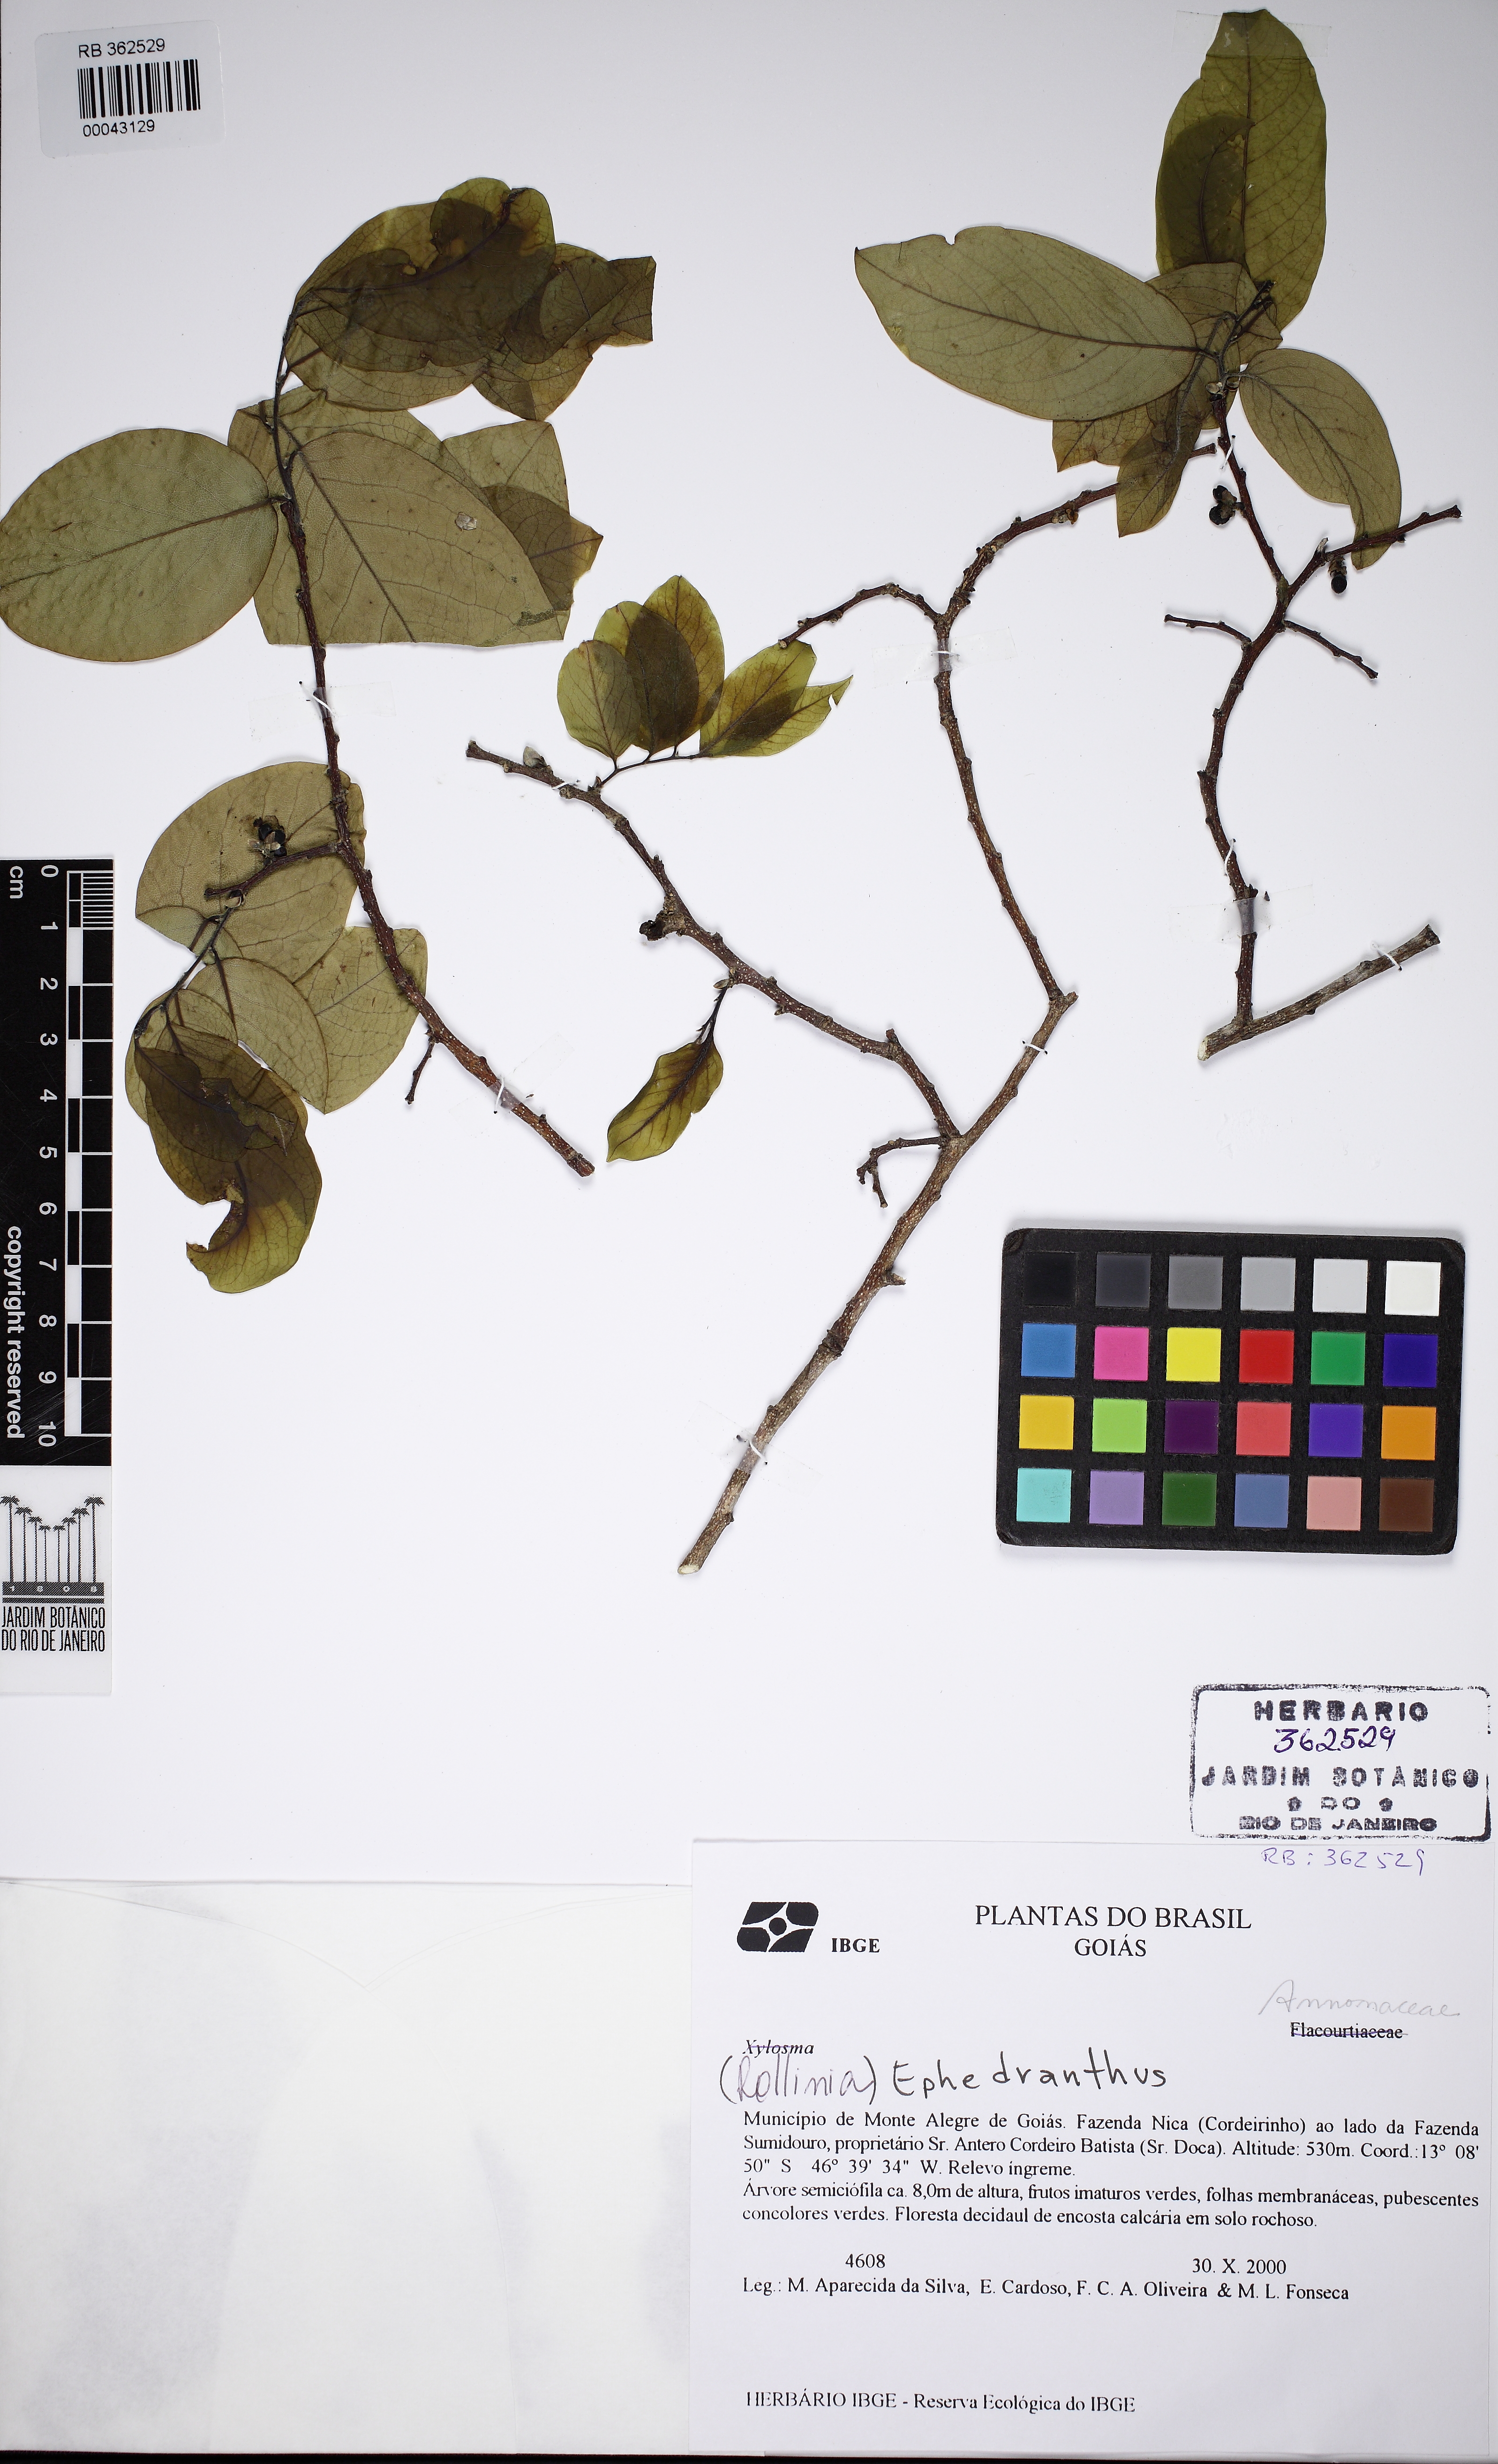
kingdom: Plantae
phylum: Tracheophyta
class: Magnoliopsida
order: Magnoliales
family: Annonaceae
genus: Oxandra
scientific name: Oxandra saxicola
